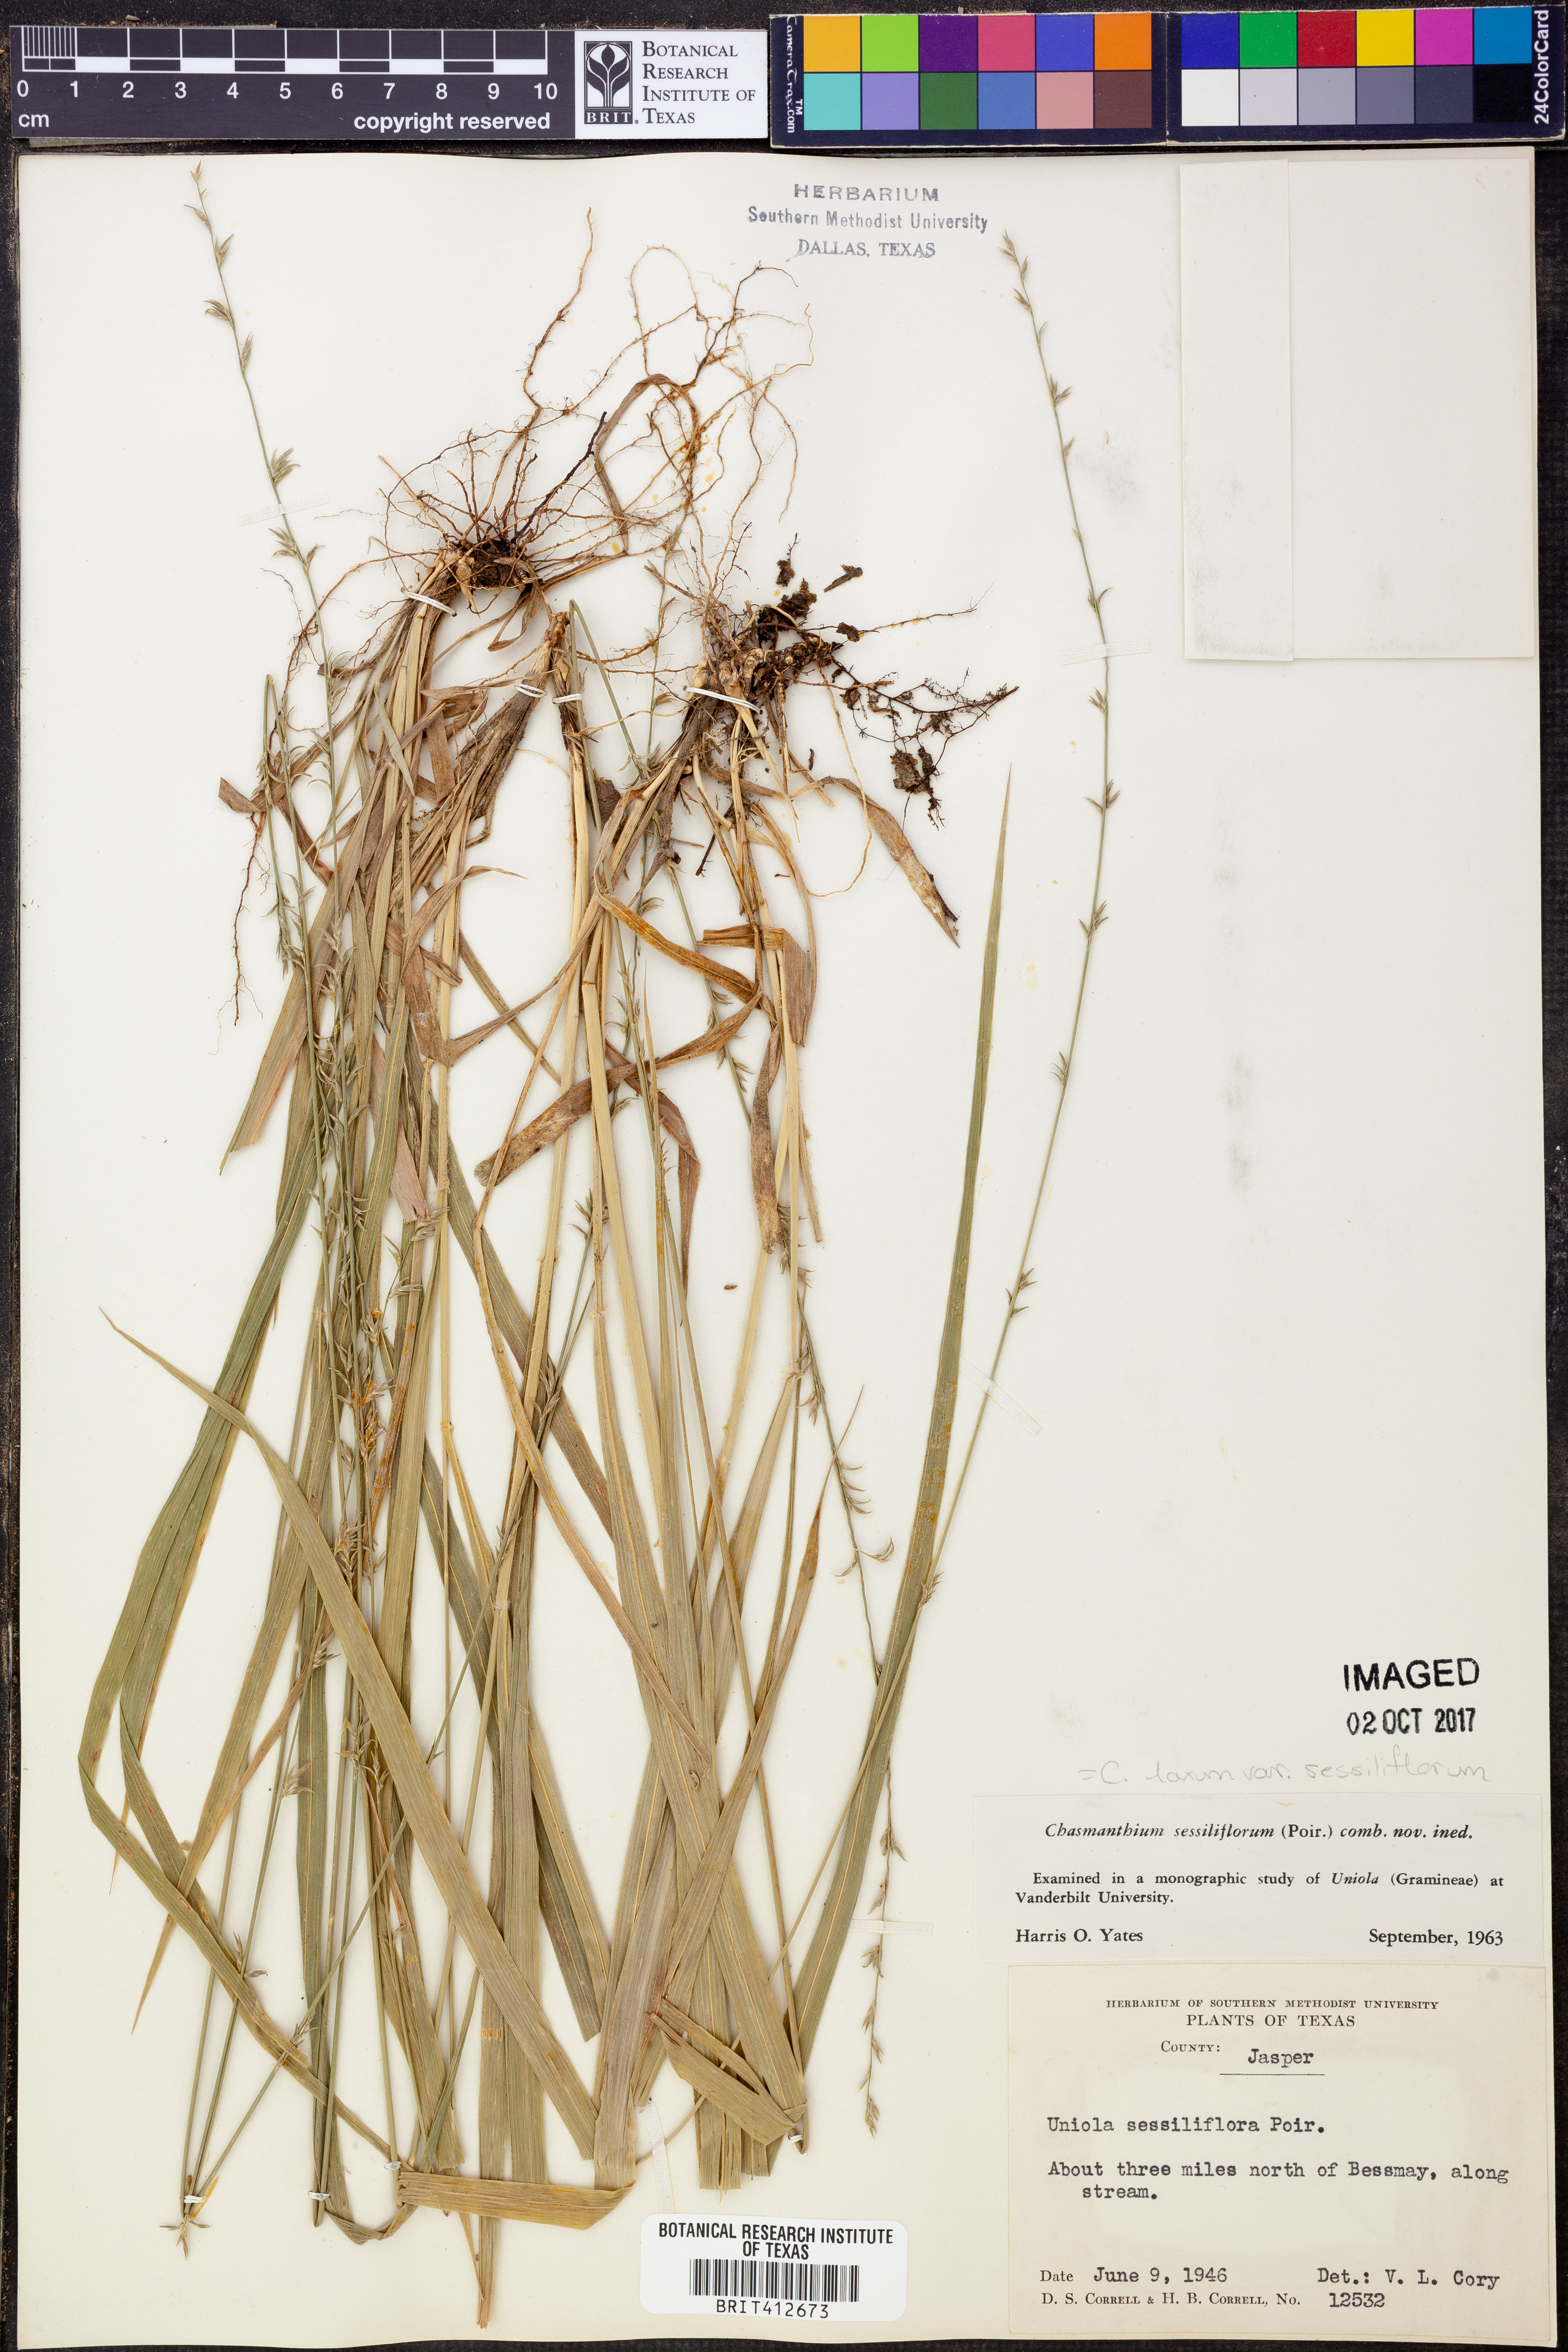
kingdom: Plantae
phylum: Tracheophyta
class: Liliopsida
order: Poales
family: Poaceae
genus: Chasmanthium
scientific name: Chasmanthium laxum
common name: Slender chasmanthium
